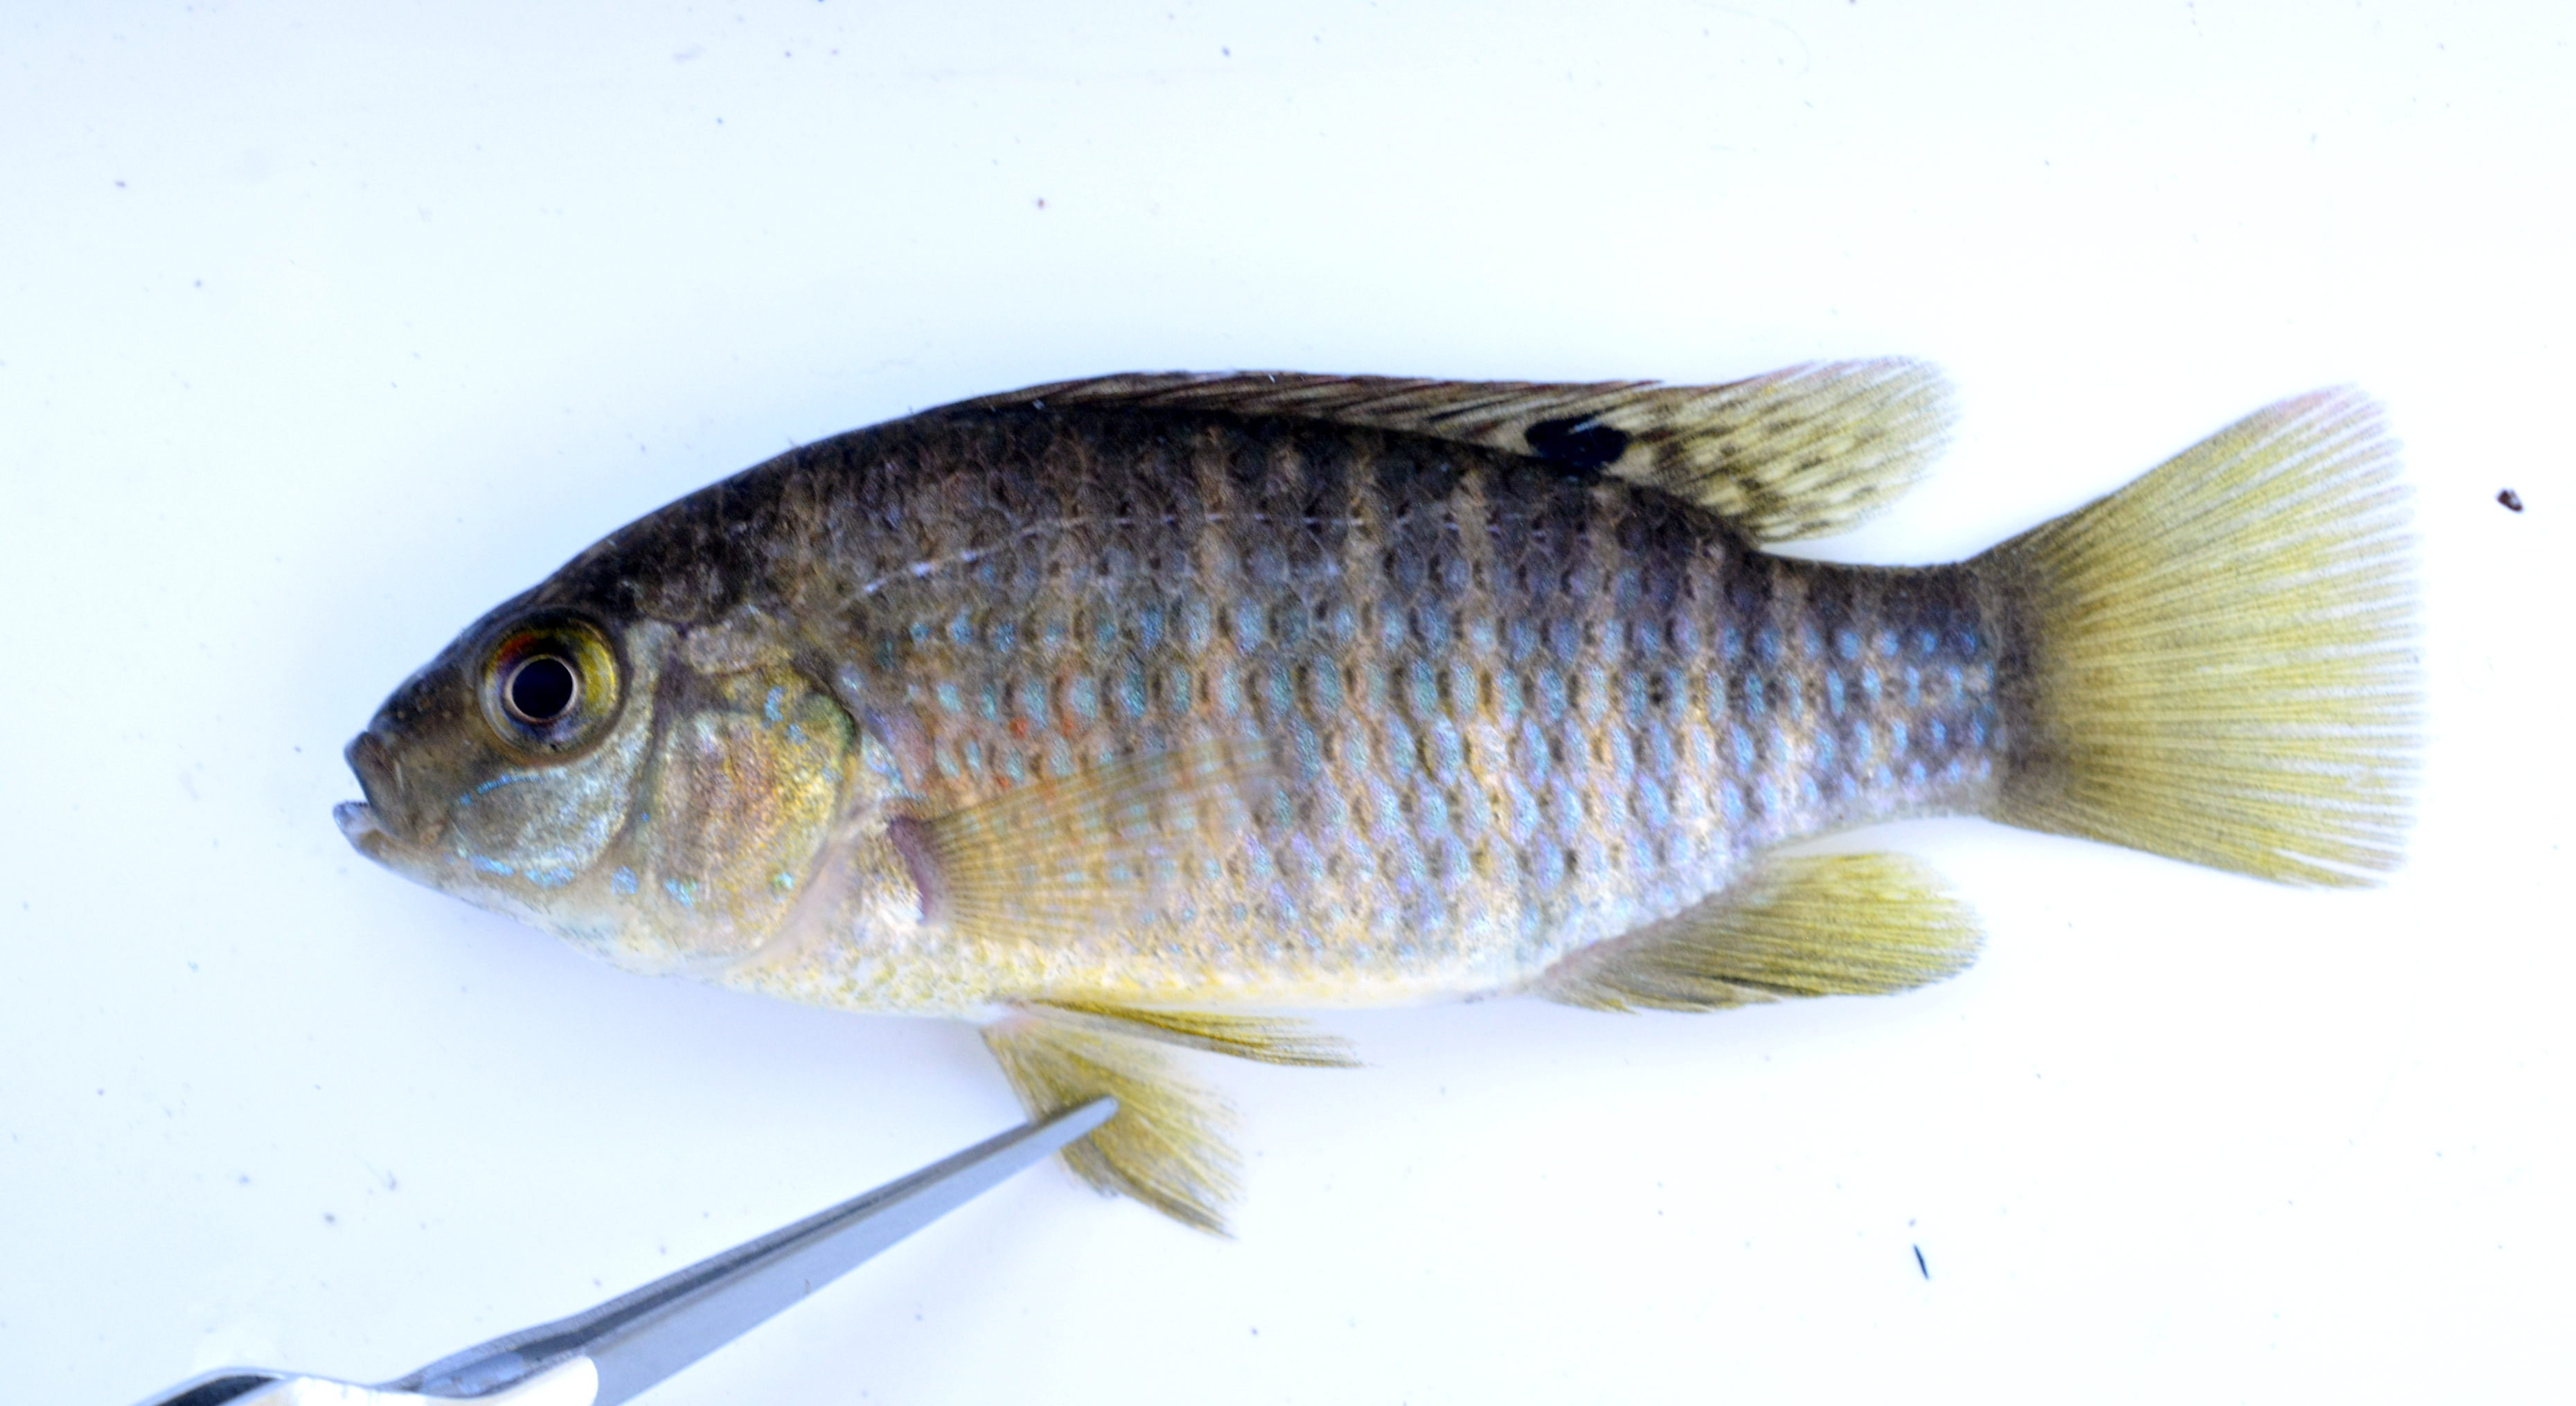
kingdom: Animalia
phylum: Chordata
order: Perciformes
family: Cichlidae
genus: Tilapia
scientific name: Tilapia sparrmanii
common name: Banded tilapia
